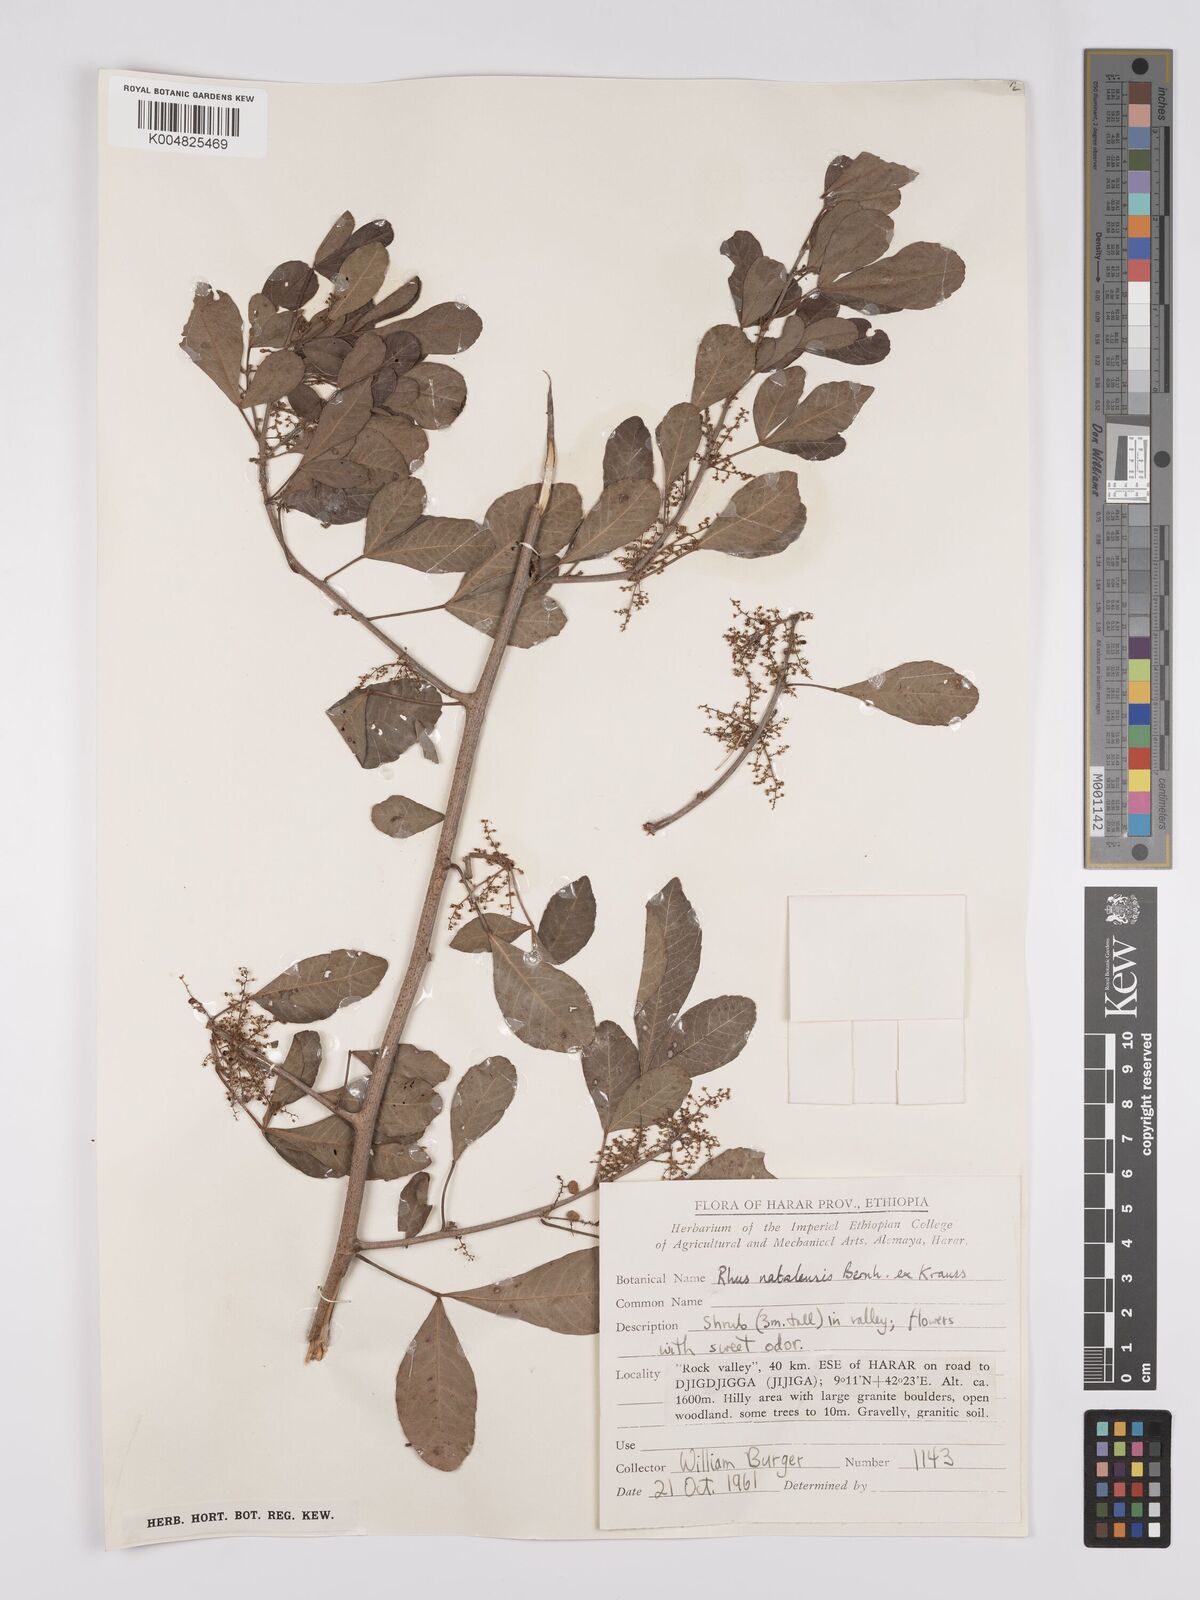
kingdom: Plantae
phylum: Tracheophyta
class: Magnoliopsida
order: Sapindales
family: Anacardiaceae
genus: Searsia
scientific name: Searsia natalensis
